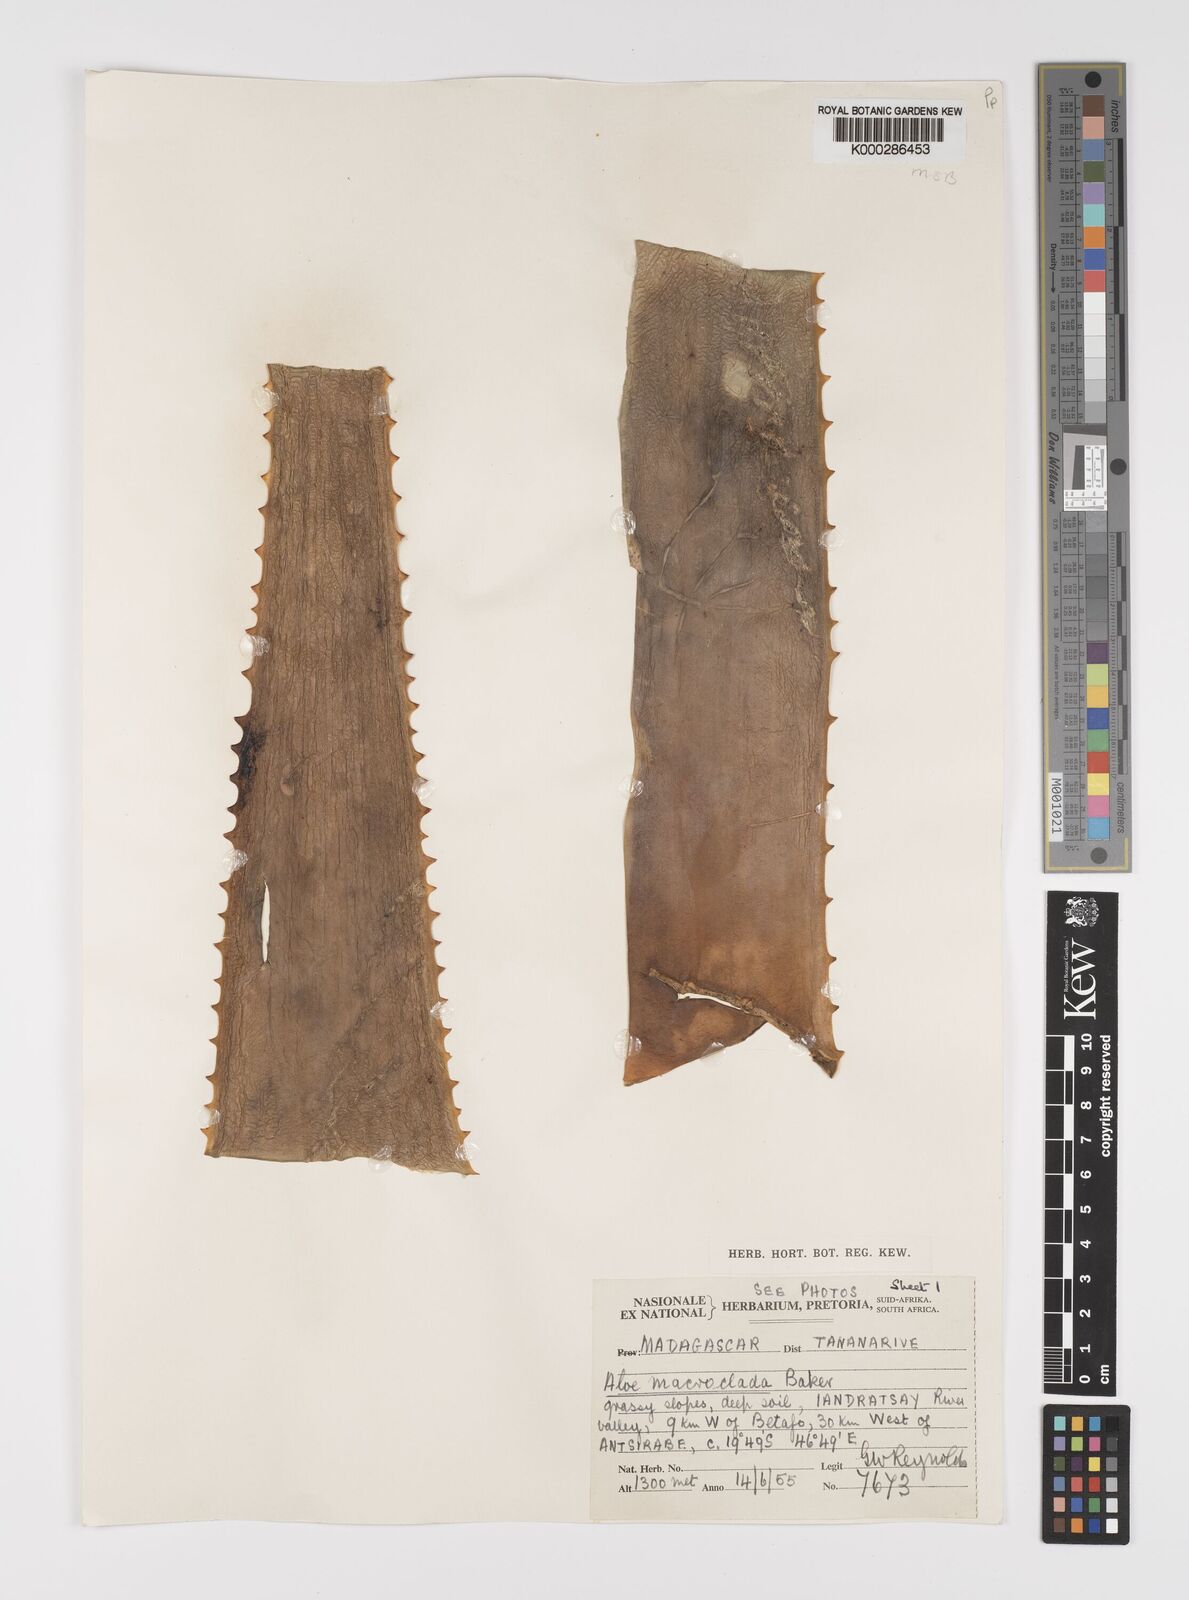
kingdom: Plantae
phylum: Tracheophyta
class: Liliopsida
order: Asparagales
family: Asphodelaceae
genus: Aloe
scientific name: Aloe macroclada
